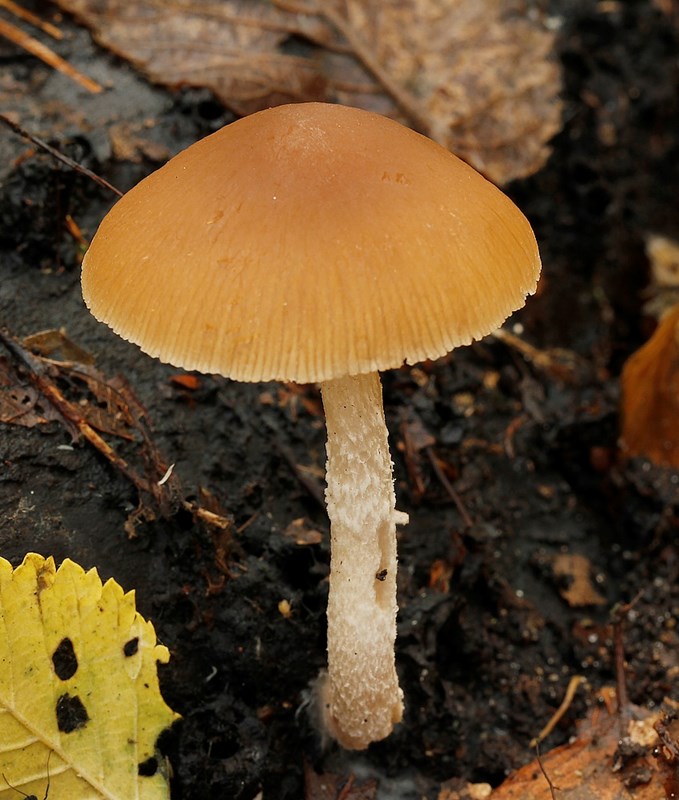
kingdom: Fungi
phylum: Basidiomycota
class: Agaricomycetes
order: Agaricales
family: Psathyrellaceae
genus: Psathyrella
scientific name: Psathyrella rostellata
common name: næbbet mørkhat
